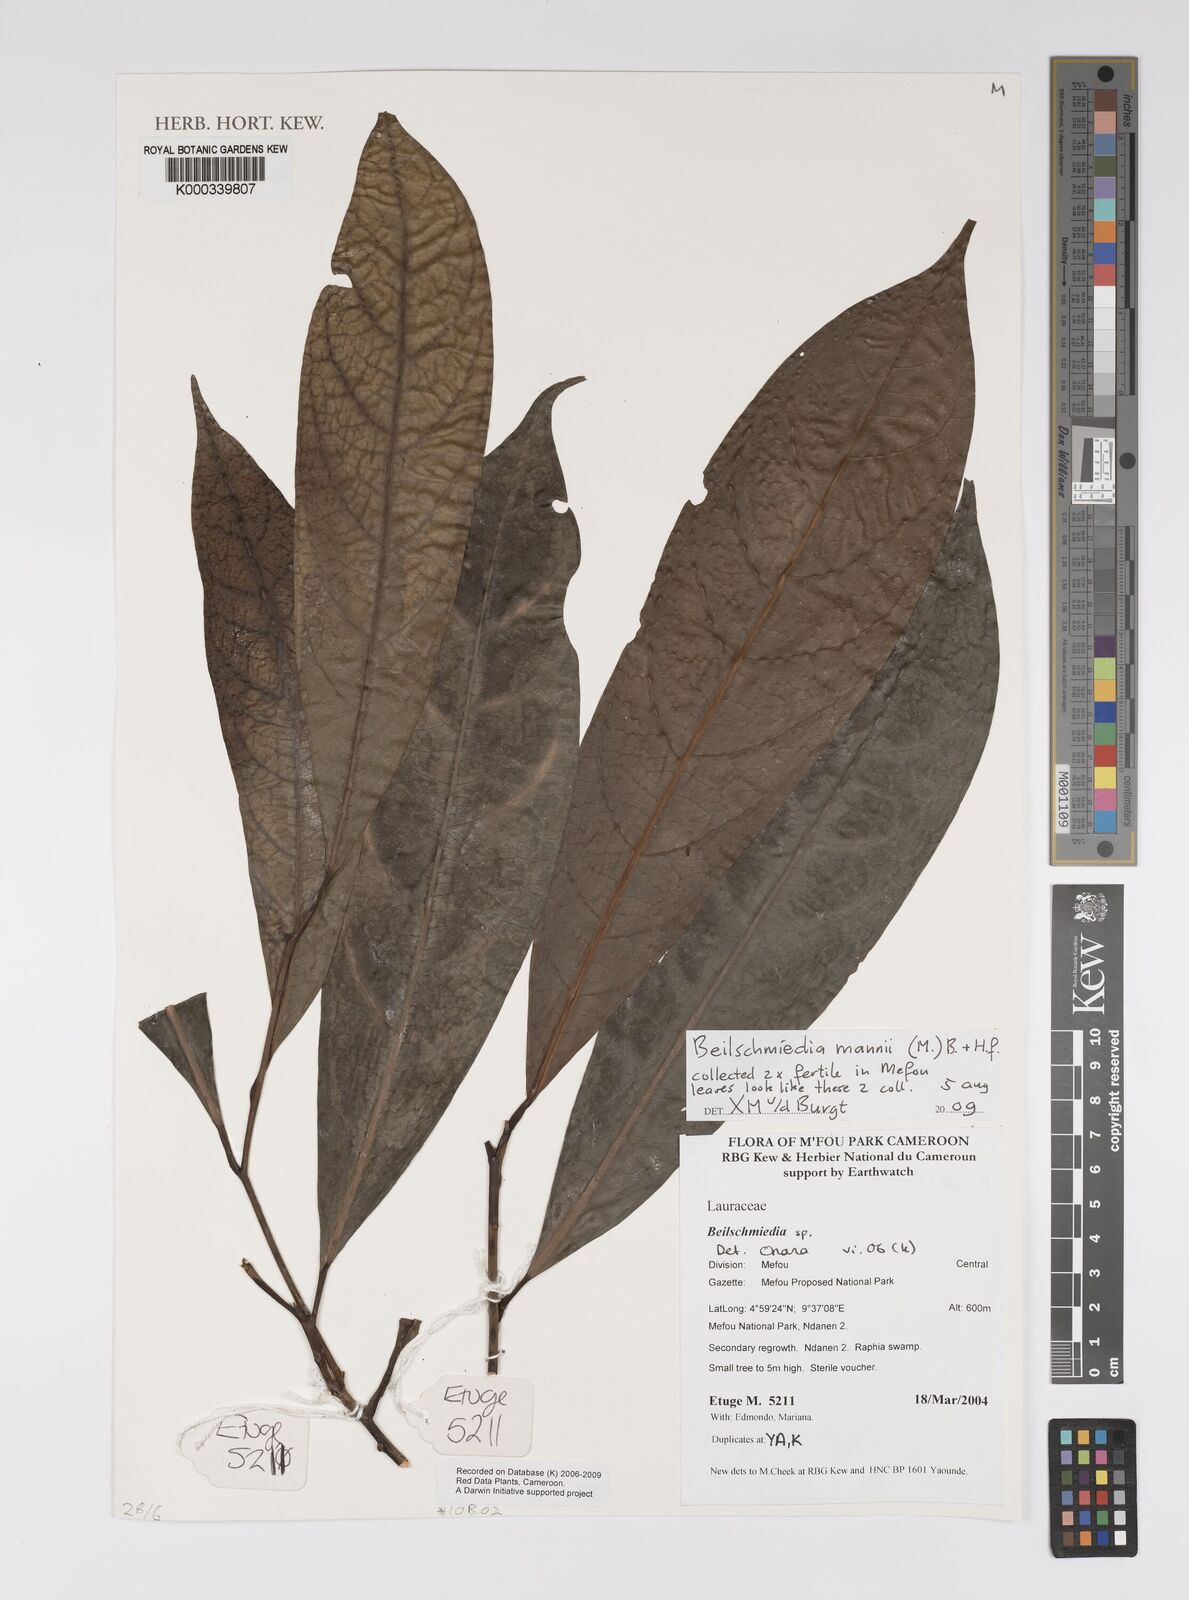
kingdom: Plantae
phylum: Tracheophyta
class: Magnoliopsida
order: Laurales
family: Lauraceae
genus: Beilschmiedia
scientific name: Beilschmiedia
